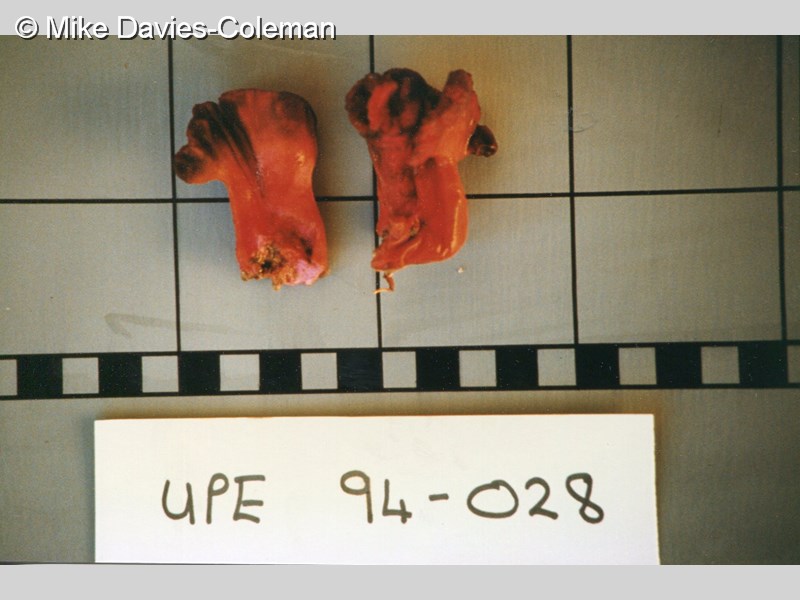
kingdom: Animalia
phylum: Porifera
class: Calcarea
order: Clathrinida
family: Clathrinidae
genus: Clathrina
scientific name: Clathrina
